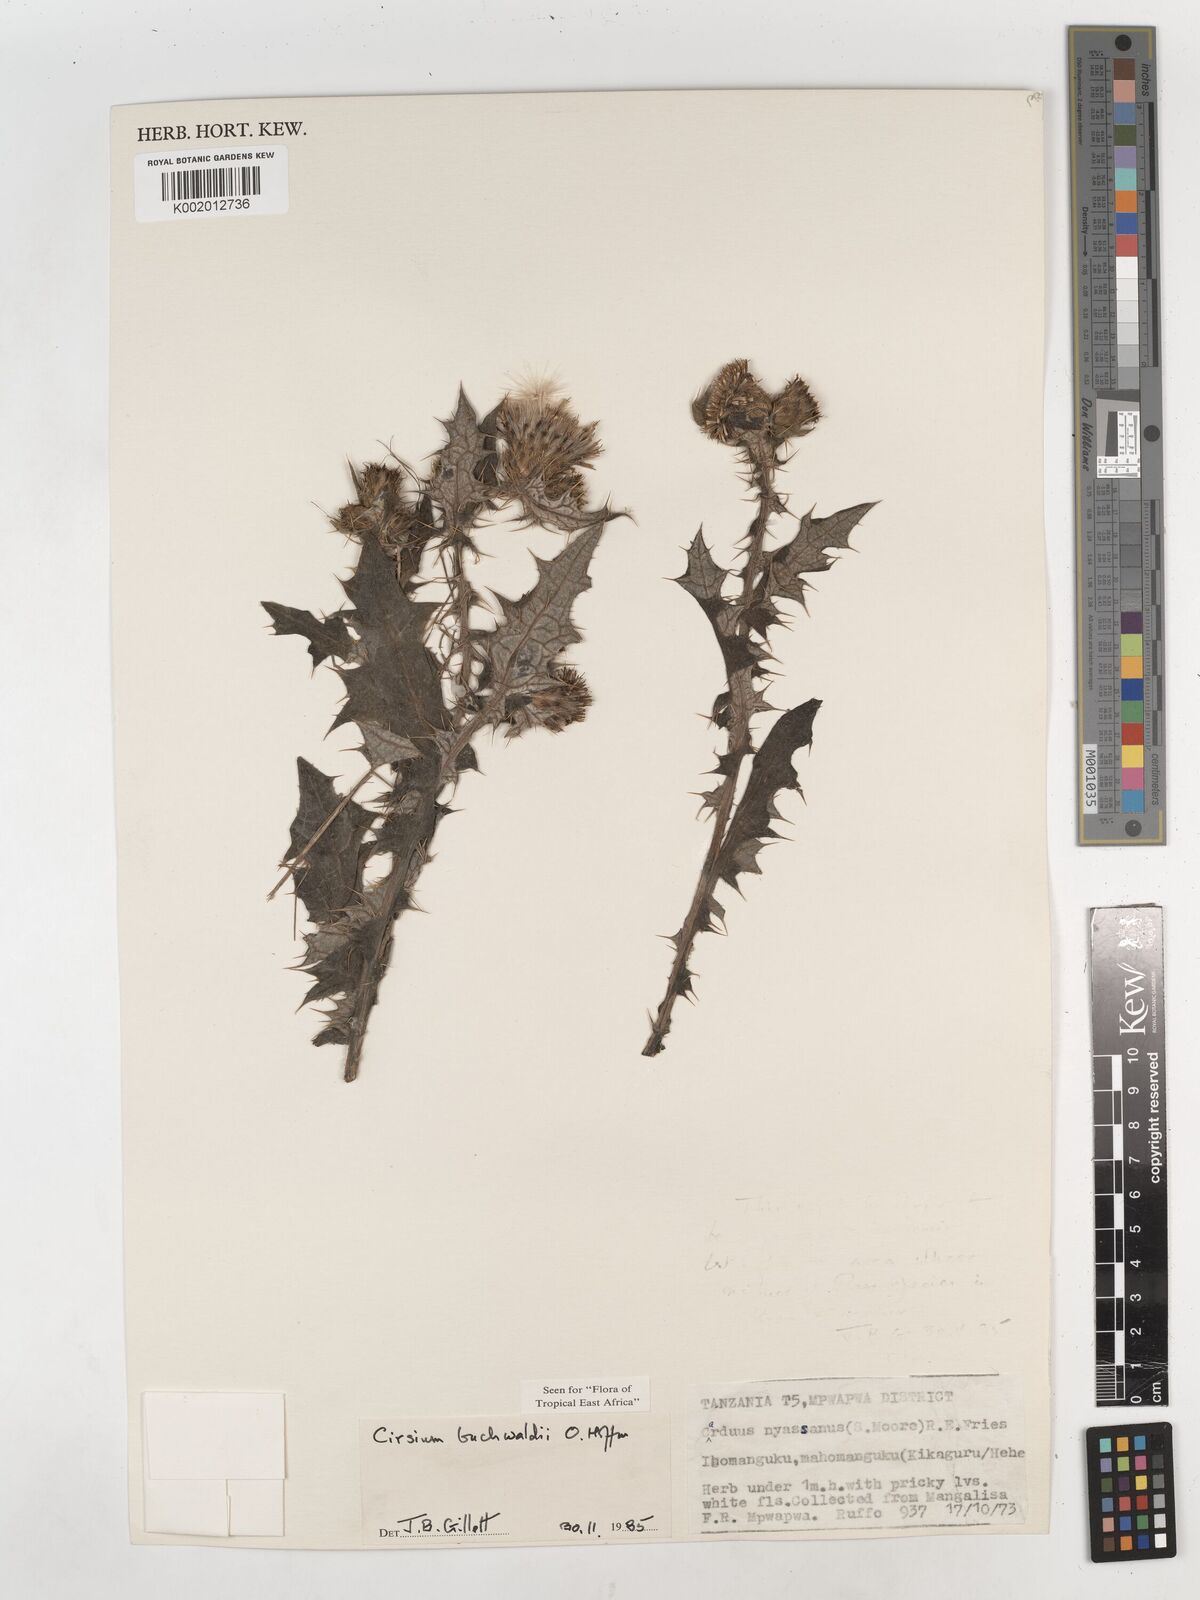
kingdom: Plantae
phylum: Tracheophyta
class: Magnoliopsida
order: Asterales
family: Asteraceae
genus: Cirsium
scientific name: Cirsium buchwaldii
